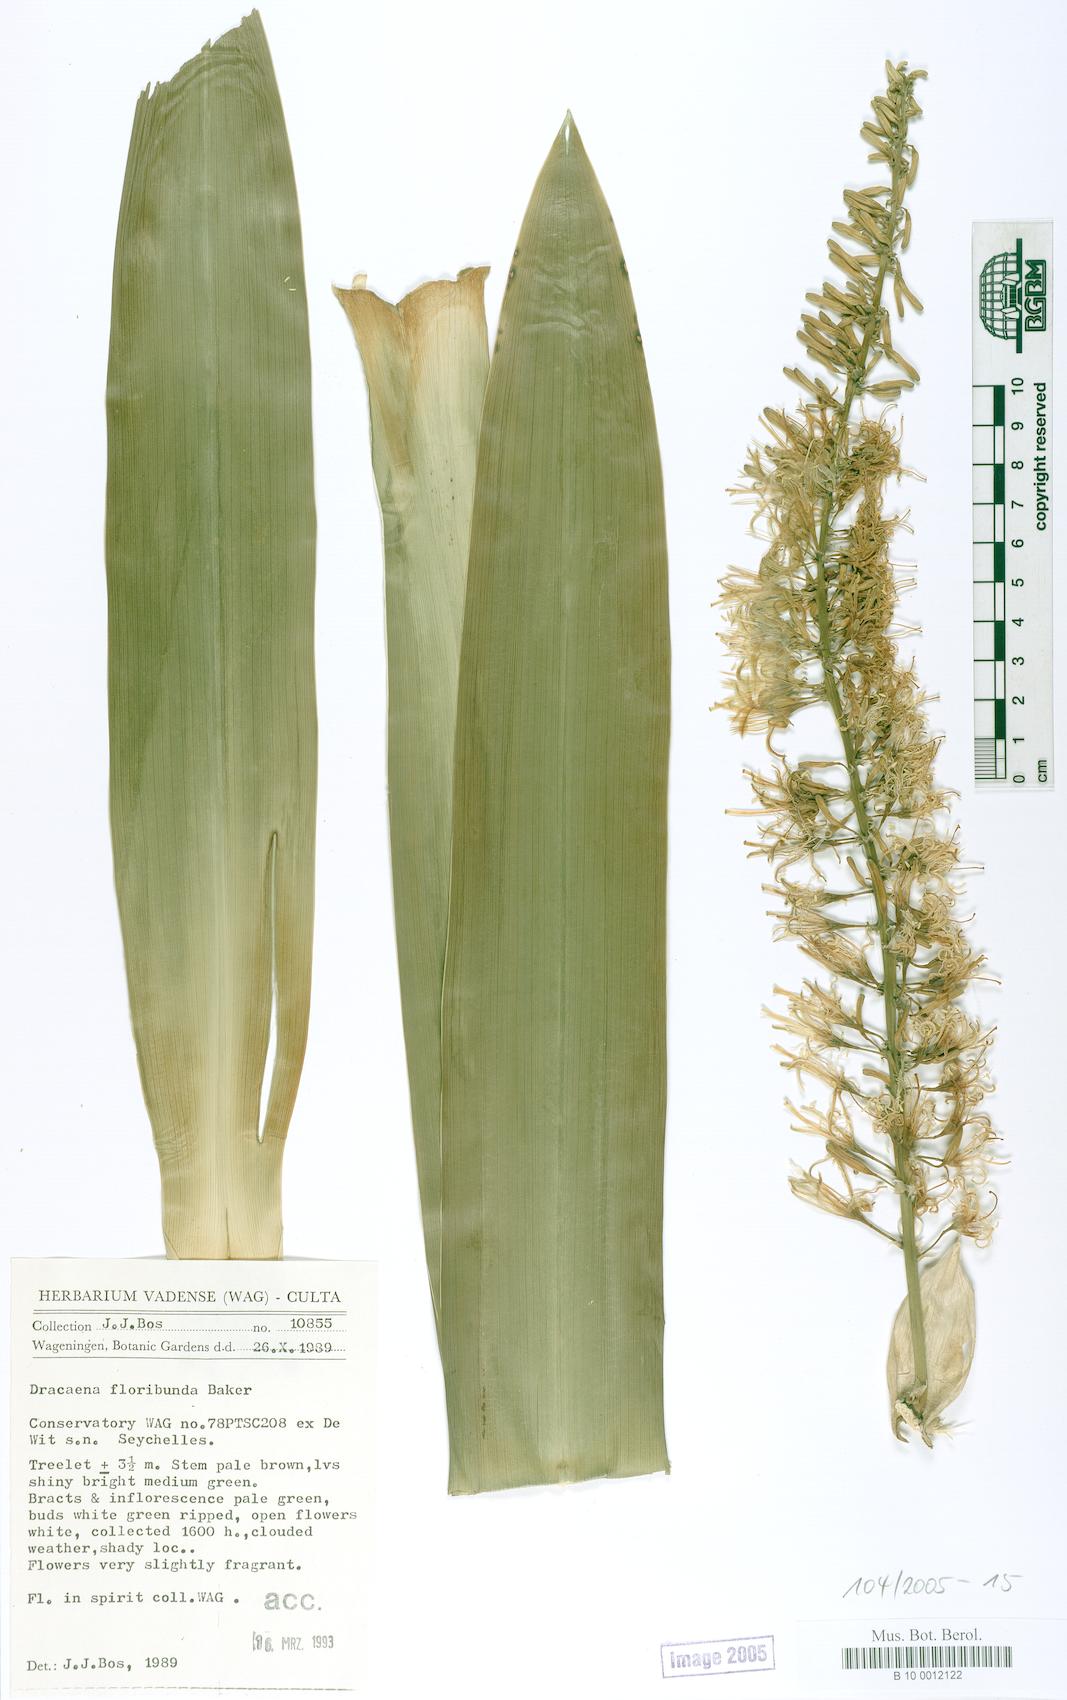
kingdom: Plantae
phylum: Tracheophyta
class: Liliopsida
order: Asparagales
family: Asparagaceae
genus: Dracaena
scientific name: Dracaena floribunda
